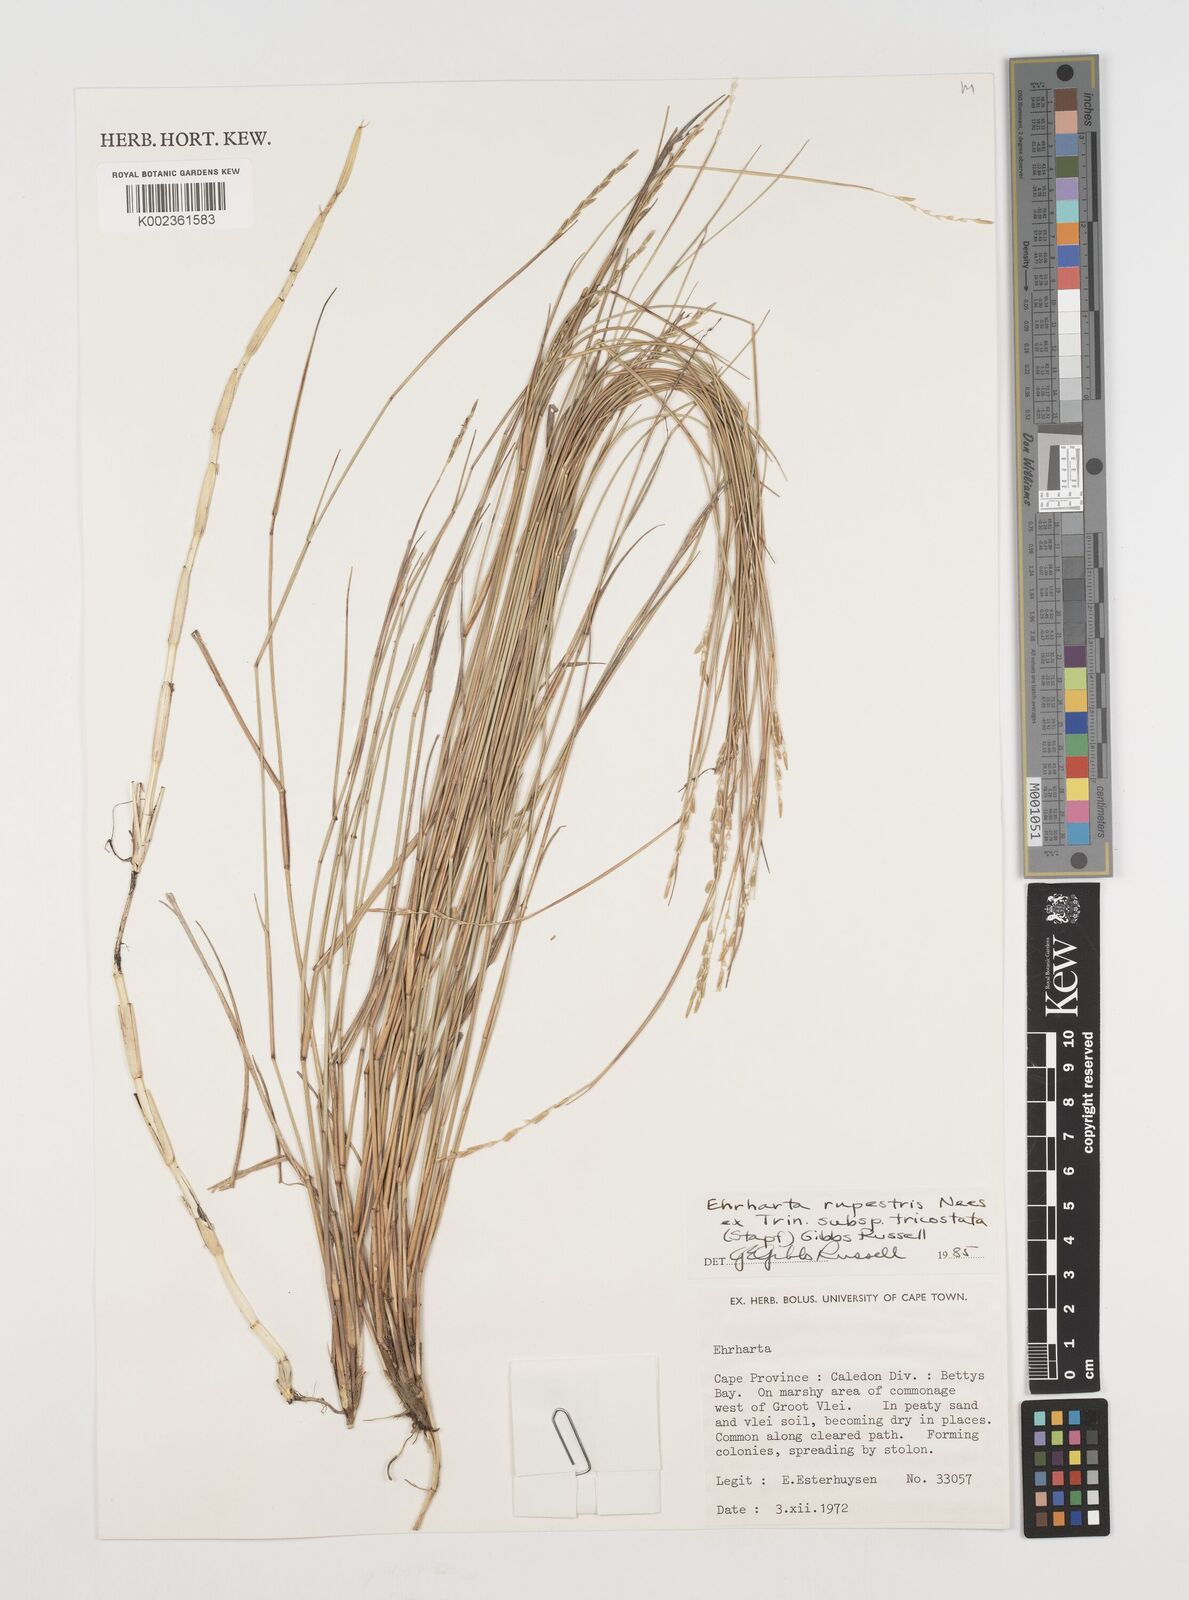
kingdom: Plantae
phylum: Tracheophyta
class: Liliopsida
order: Poales
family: Poaceae
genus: Ehrharta
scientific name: Ehrharta rupestris
